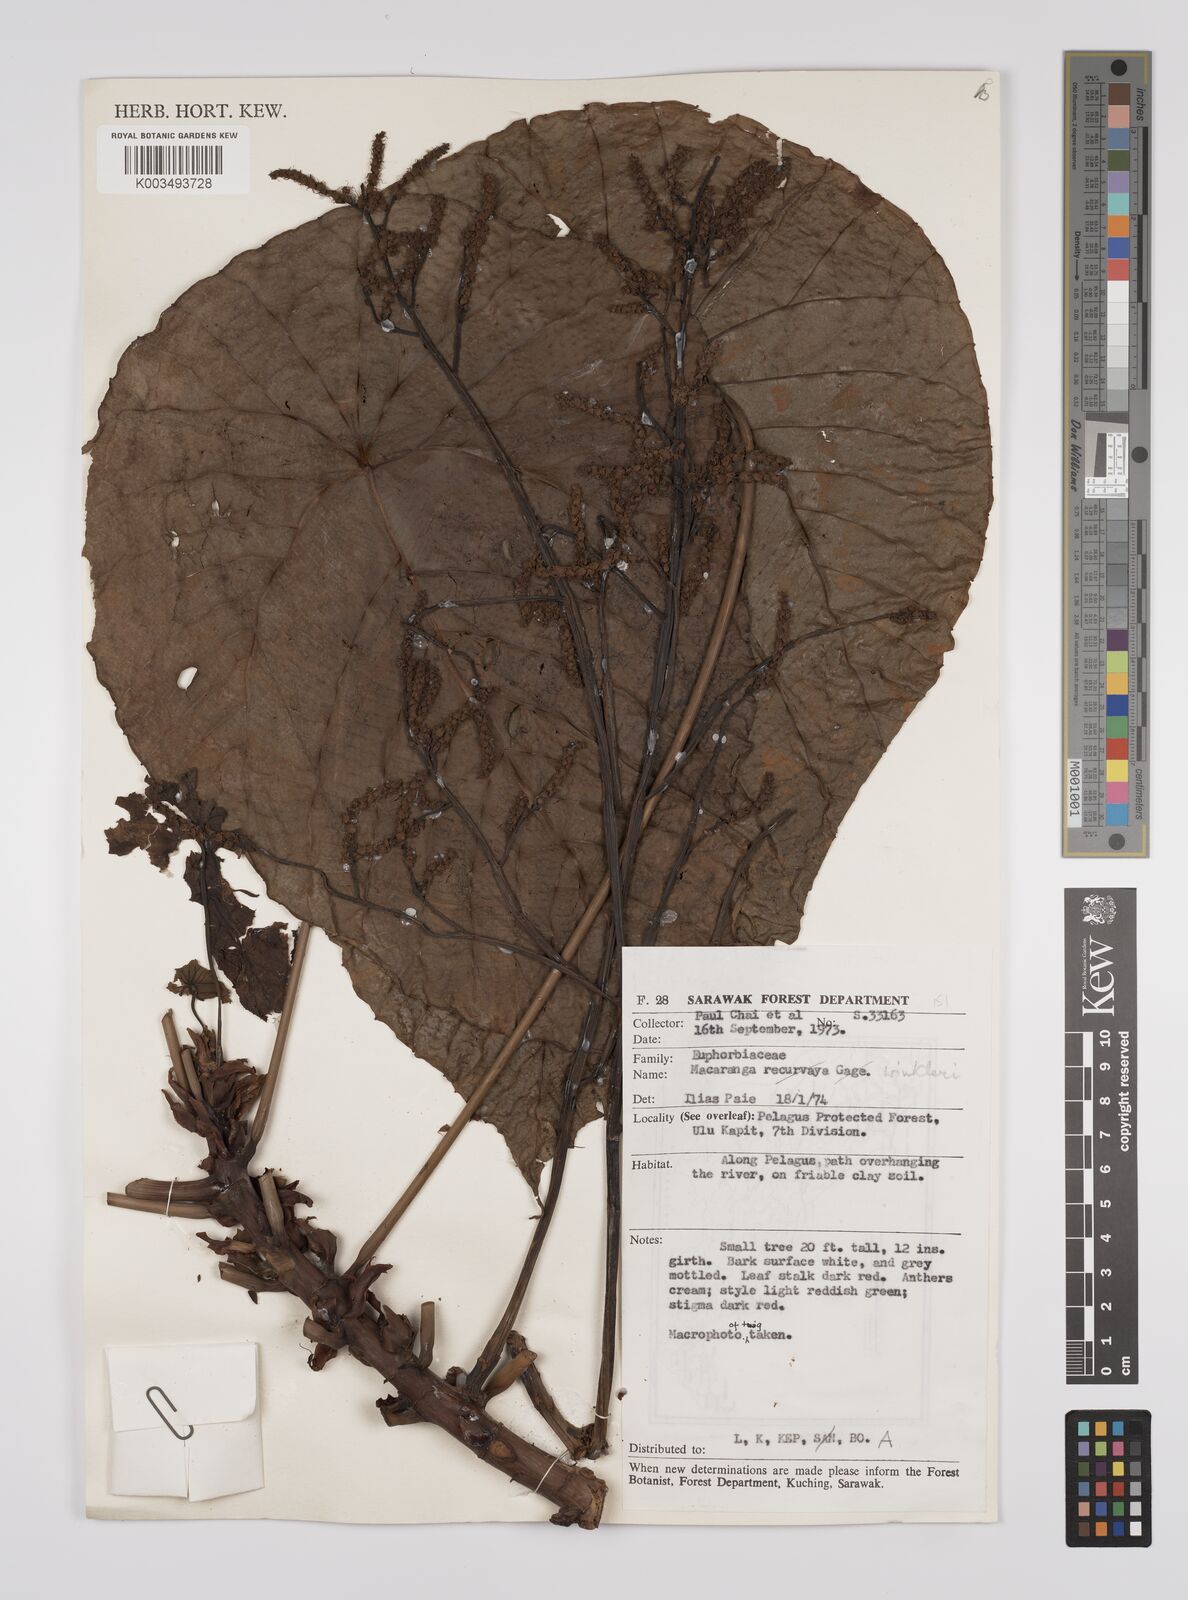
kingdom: Plantae
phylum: Tracheophyta
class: Magnoliopsida
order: Malpighiales
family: Euphorbiaceae
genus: Macaranga
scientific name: Macaranga winkleri
